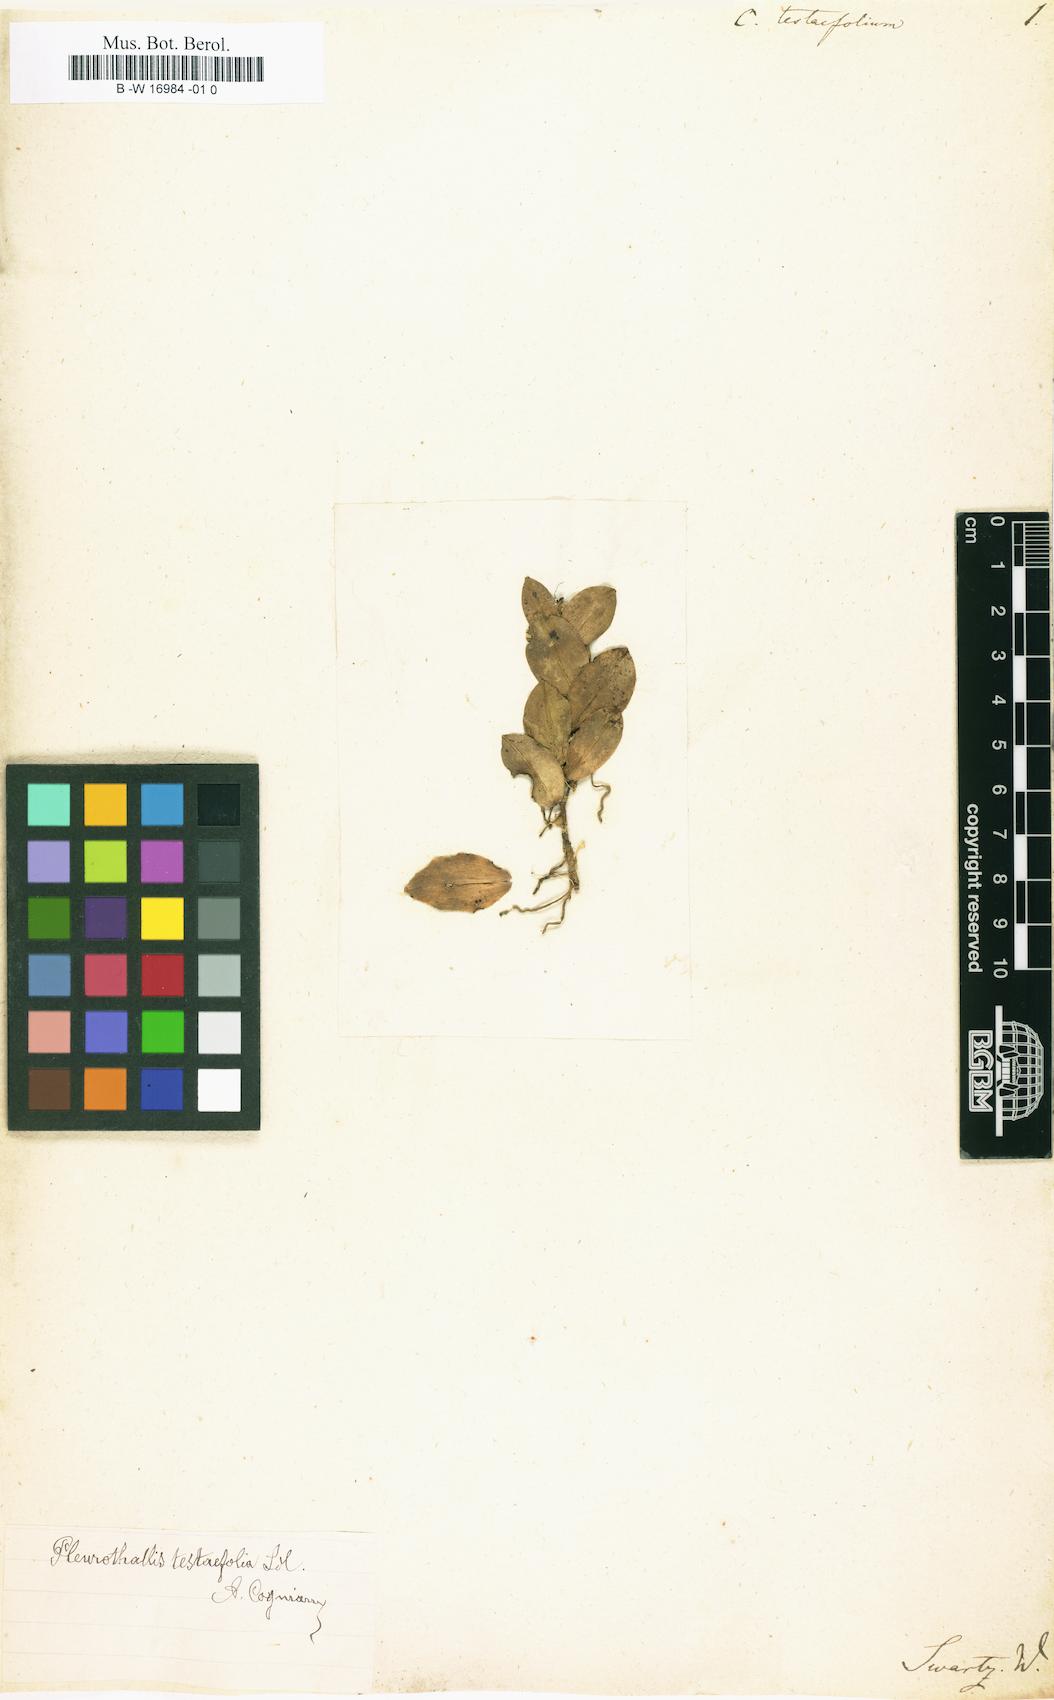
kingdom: Plantae
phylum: Tracheophyta
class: Liliopsida
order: Asparagales
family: Orchidaceae
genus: Cymbidium
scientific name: Cymbidium testaefolium
